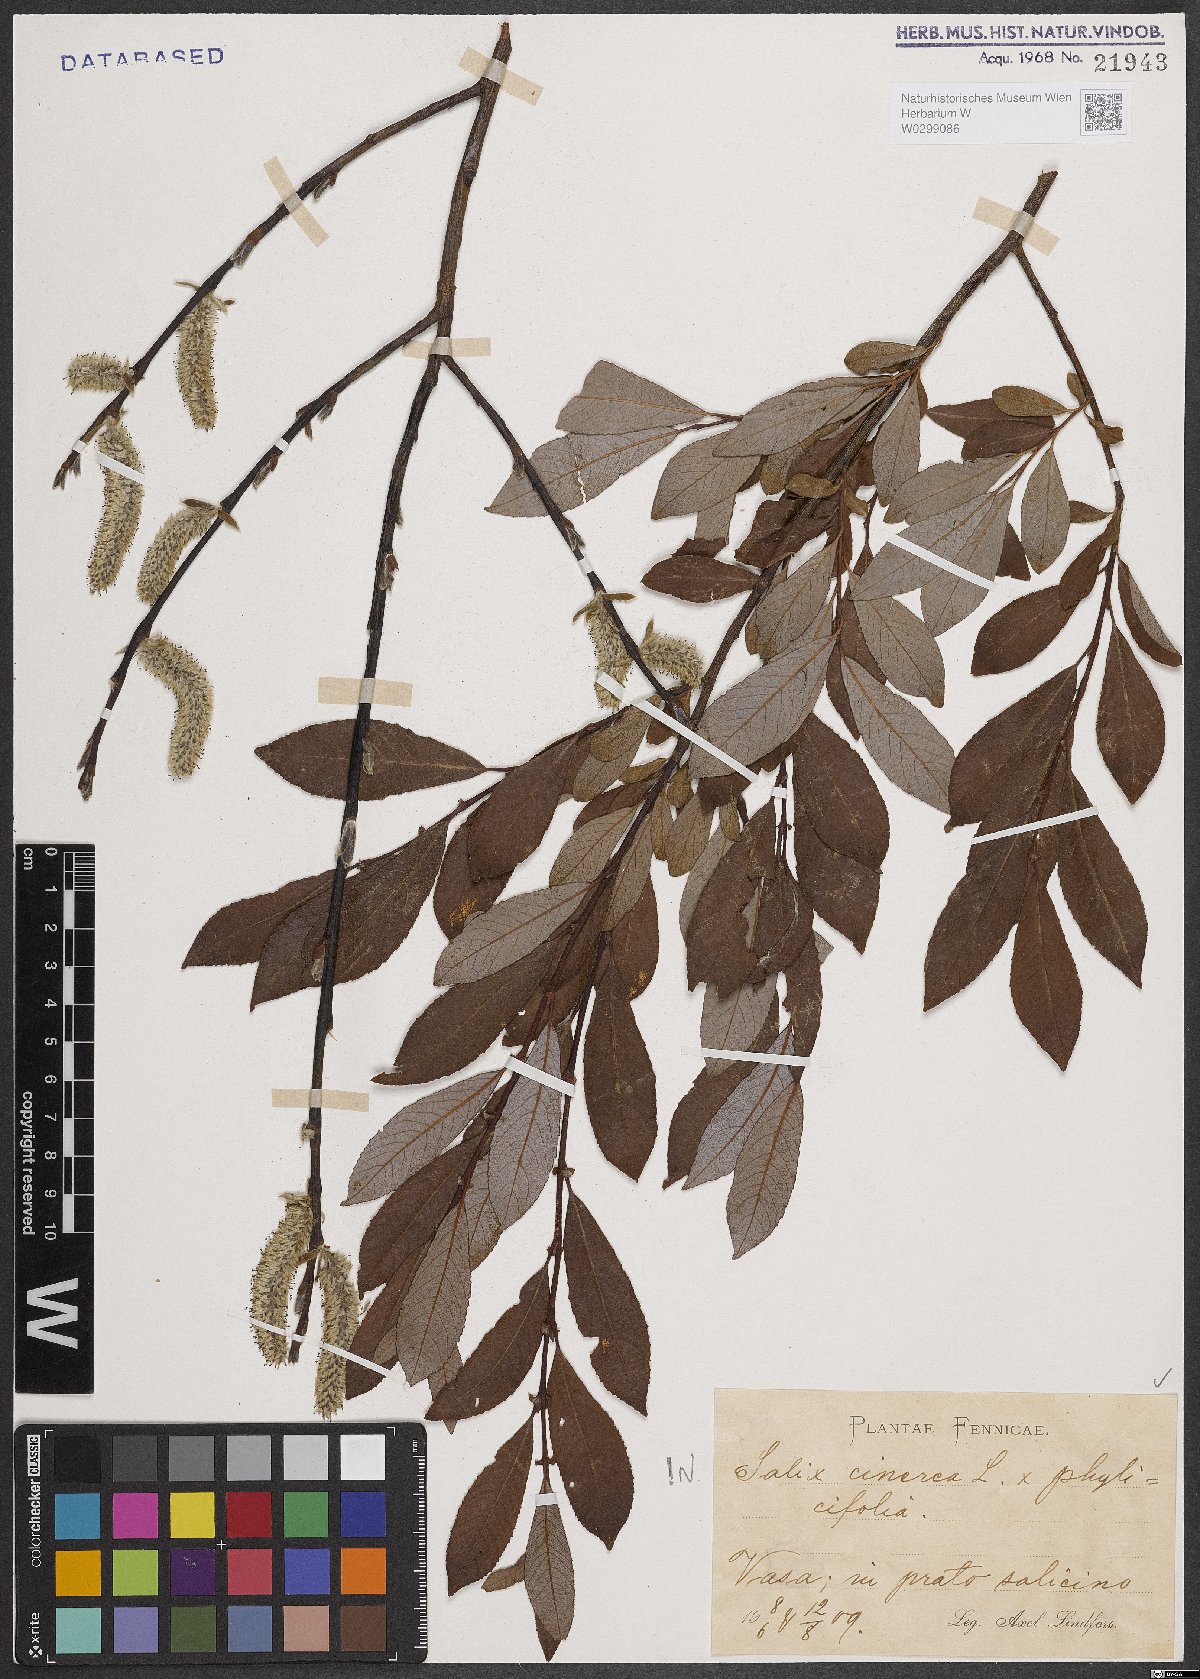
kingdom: Plantae
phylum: Tracheophyta
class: Magnoliopsida
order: Malpighiales
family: Salicaceae
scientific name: Salicaceae
